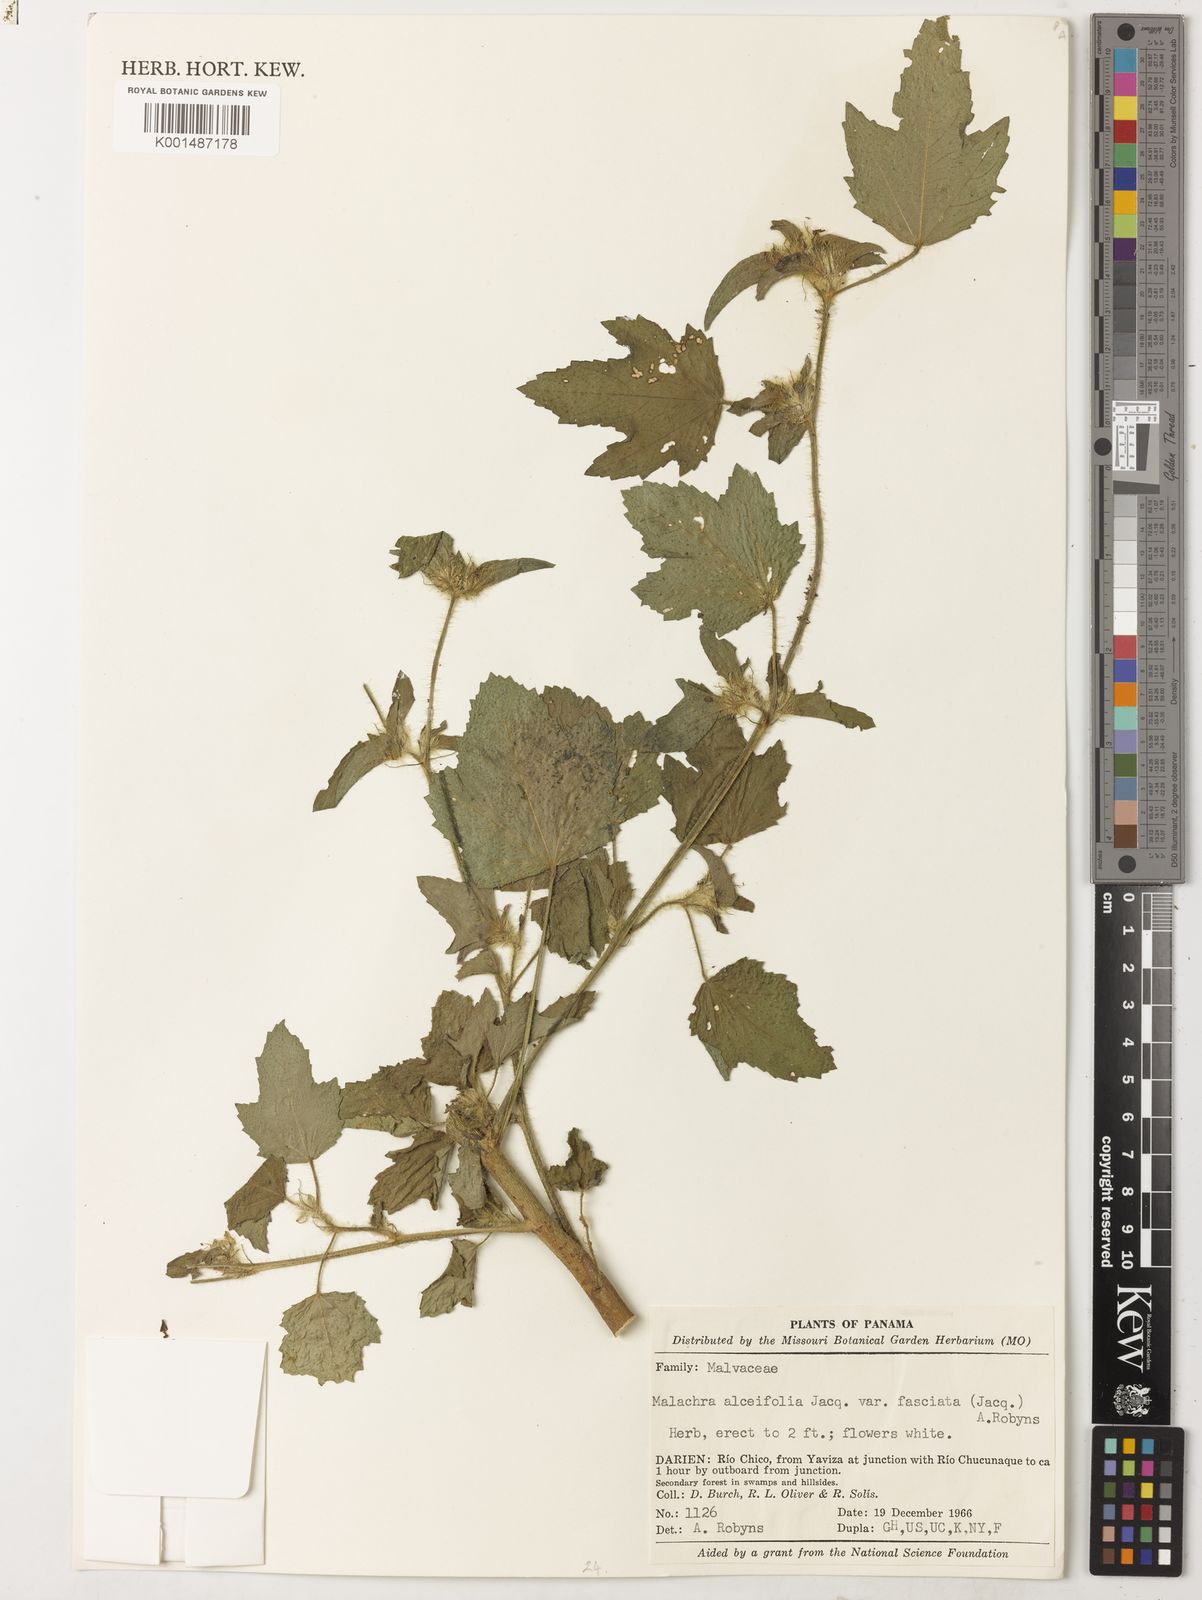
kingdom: Plantae
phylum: Tracheophyta
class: Magnoliopsida
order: Malvales
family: Malvaceae
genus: Malachra
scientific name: Malachra fasciata
